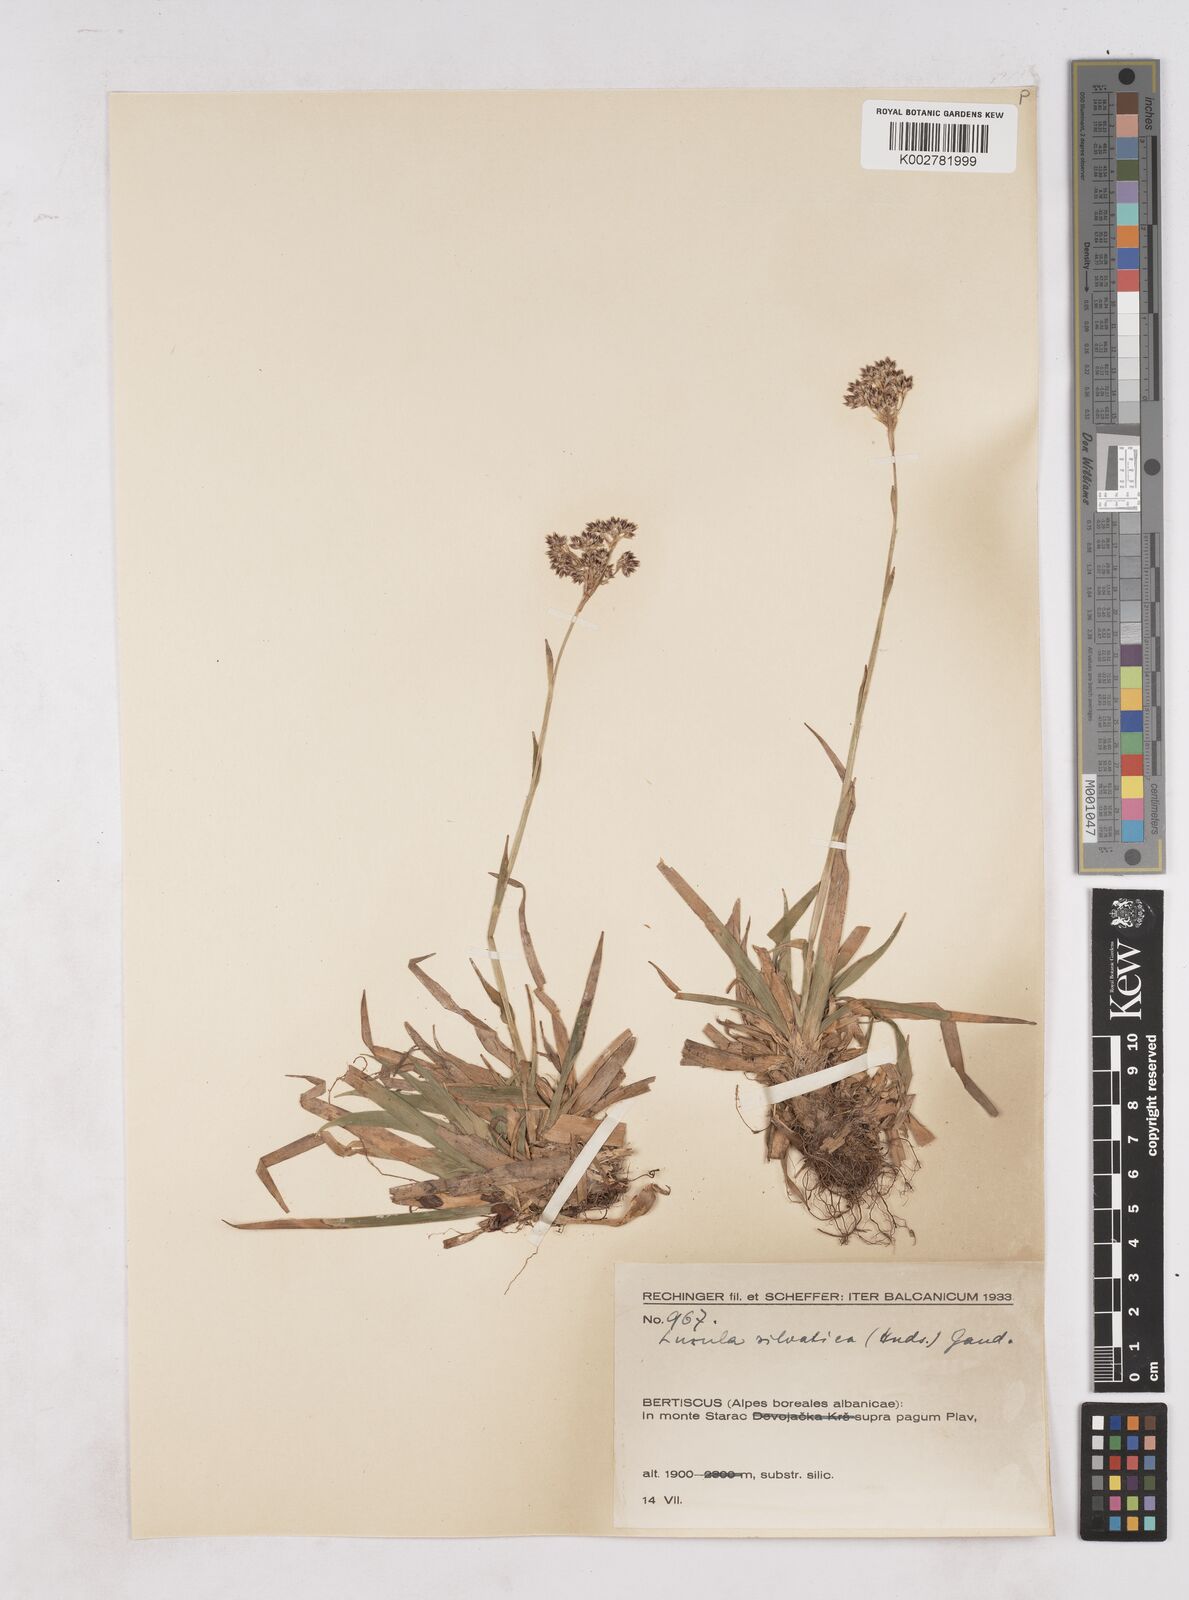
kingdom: Plantae
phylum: Tracheophyta
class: Liliopsida
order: Poales
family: Juncaceae
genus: Luzula
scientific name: Luzula sylvatica
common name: Great wood-rush
